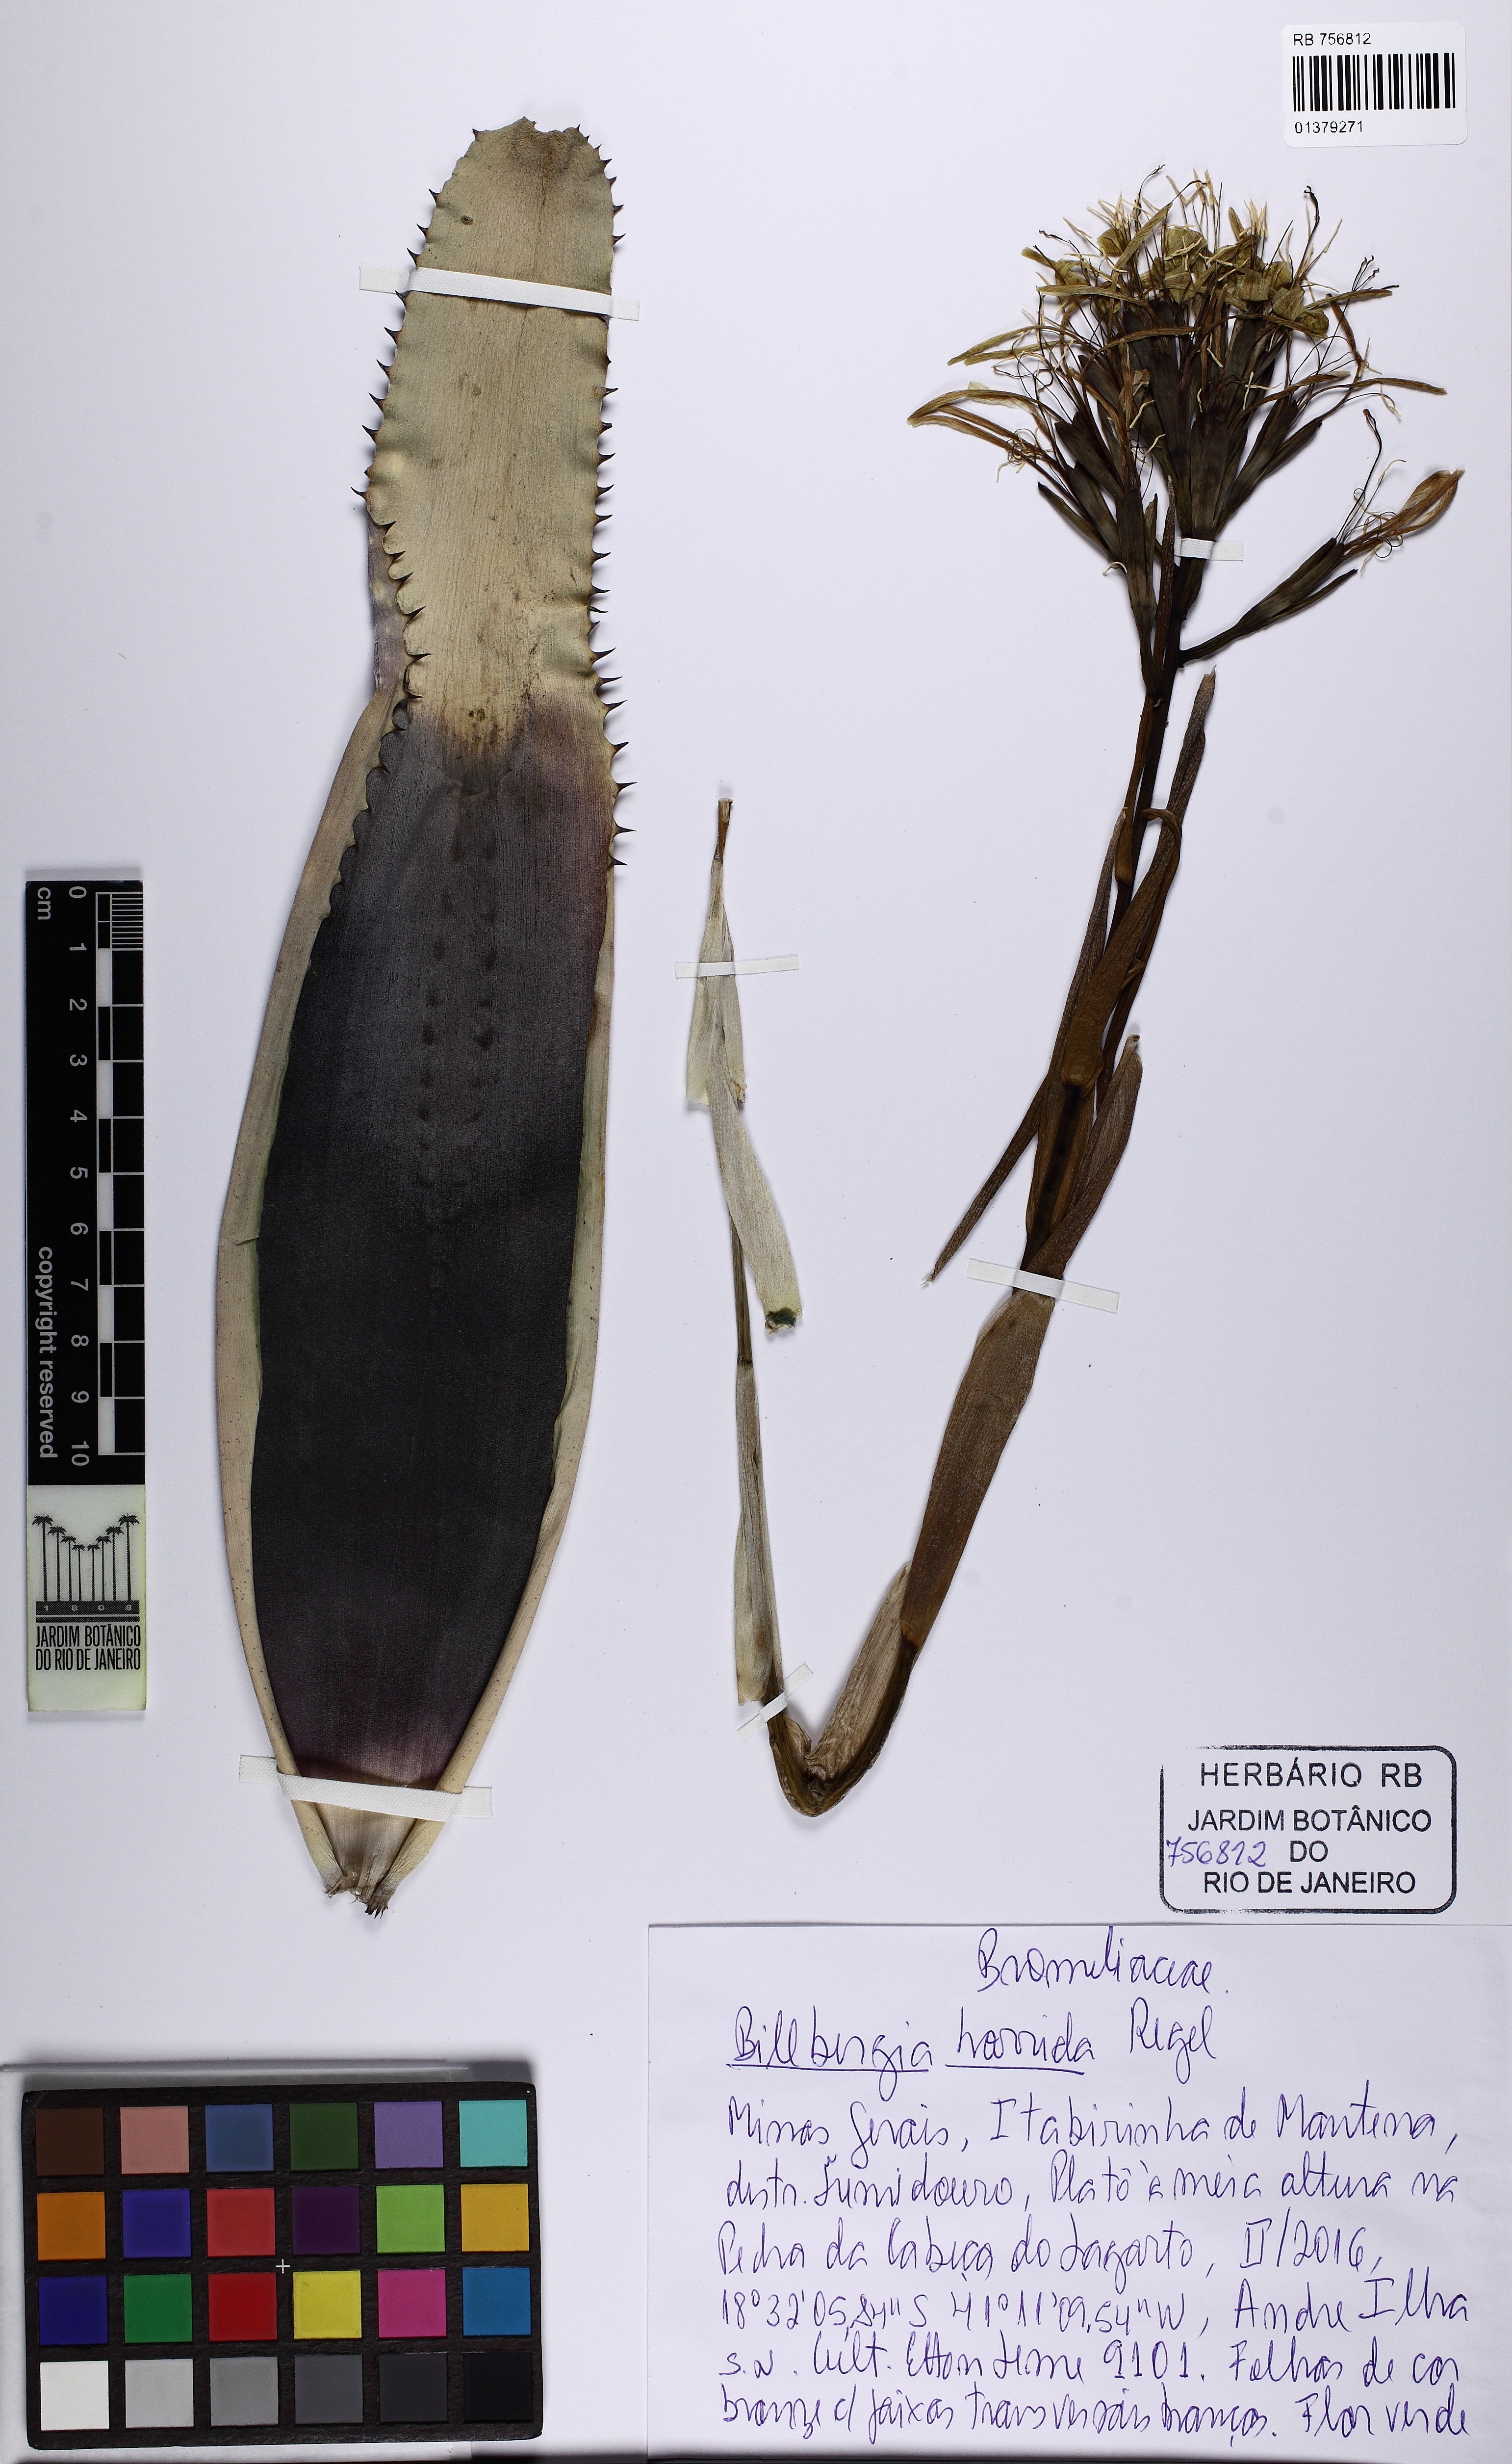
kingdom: Plantae
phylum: Tracheophyta
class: Liliopsida
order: Poales
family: Bromeliaceae
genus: Billbergia
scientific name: Billbergia horrida
